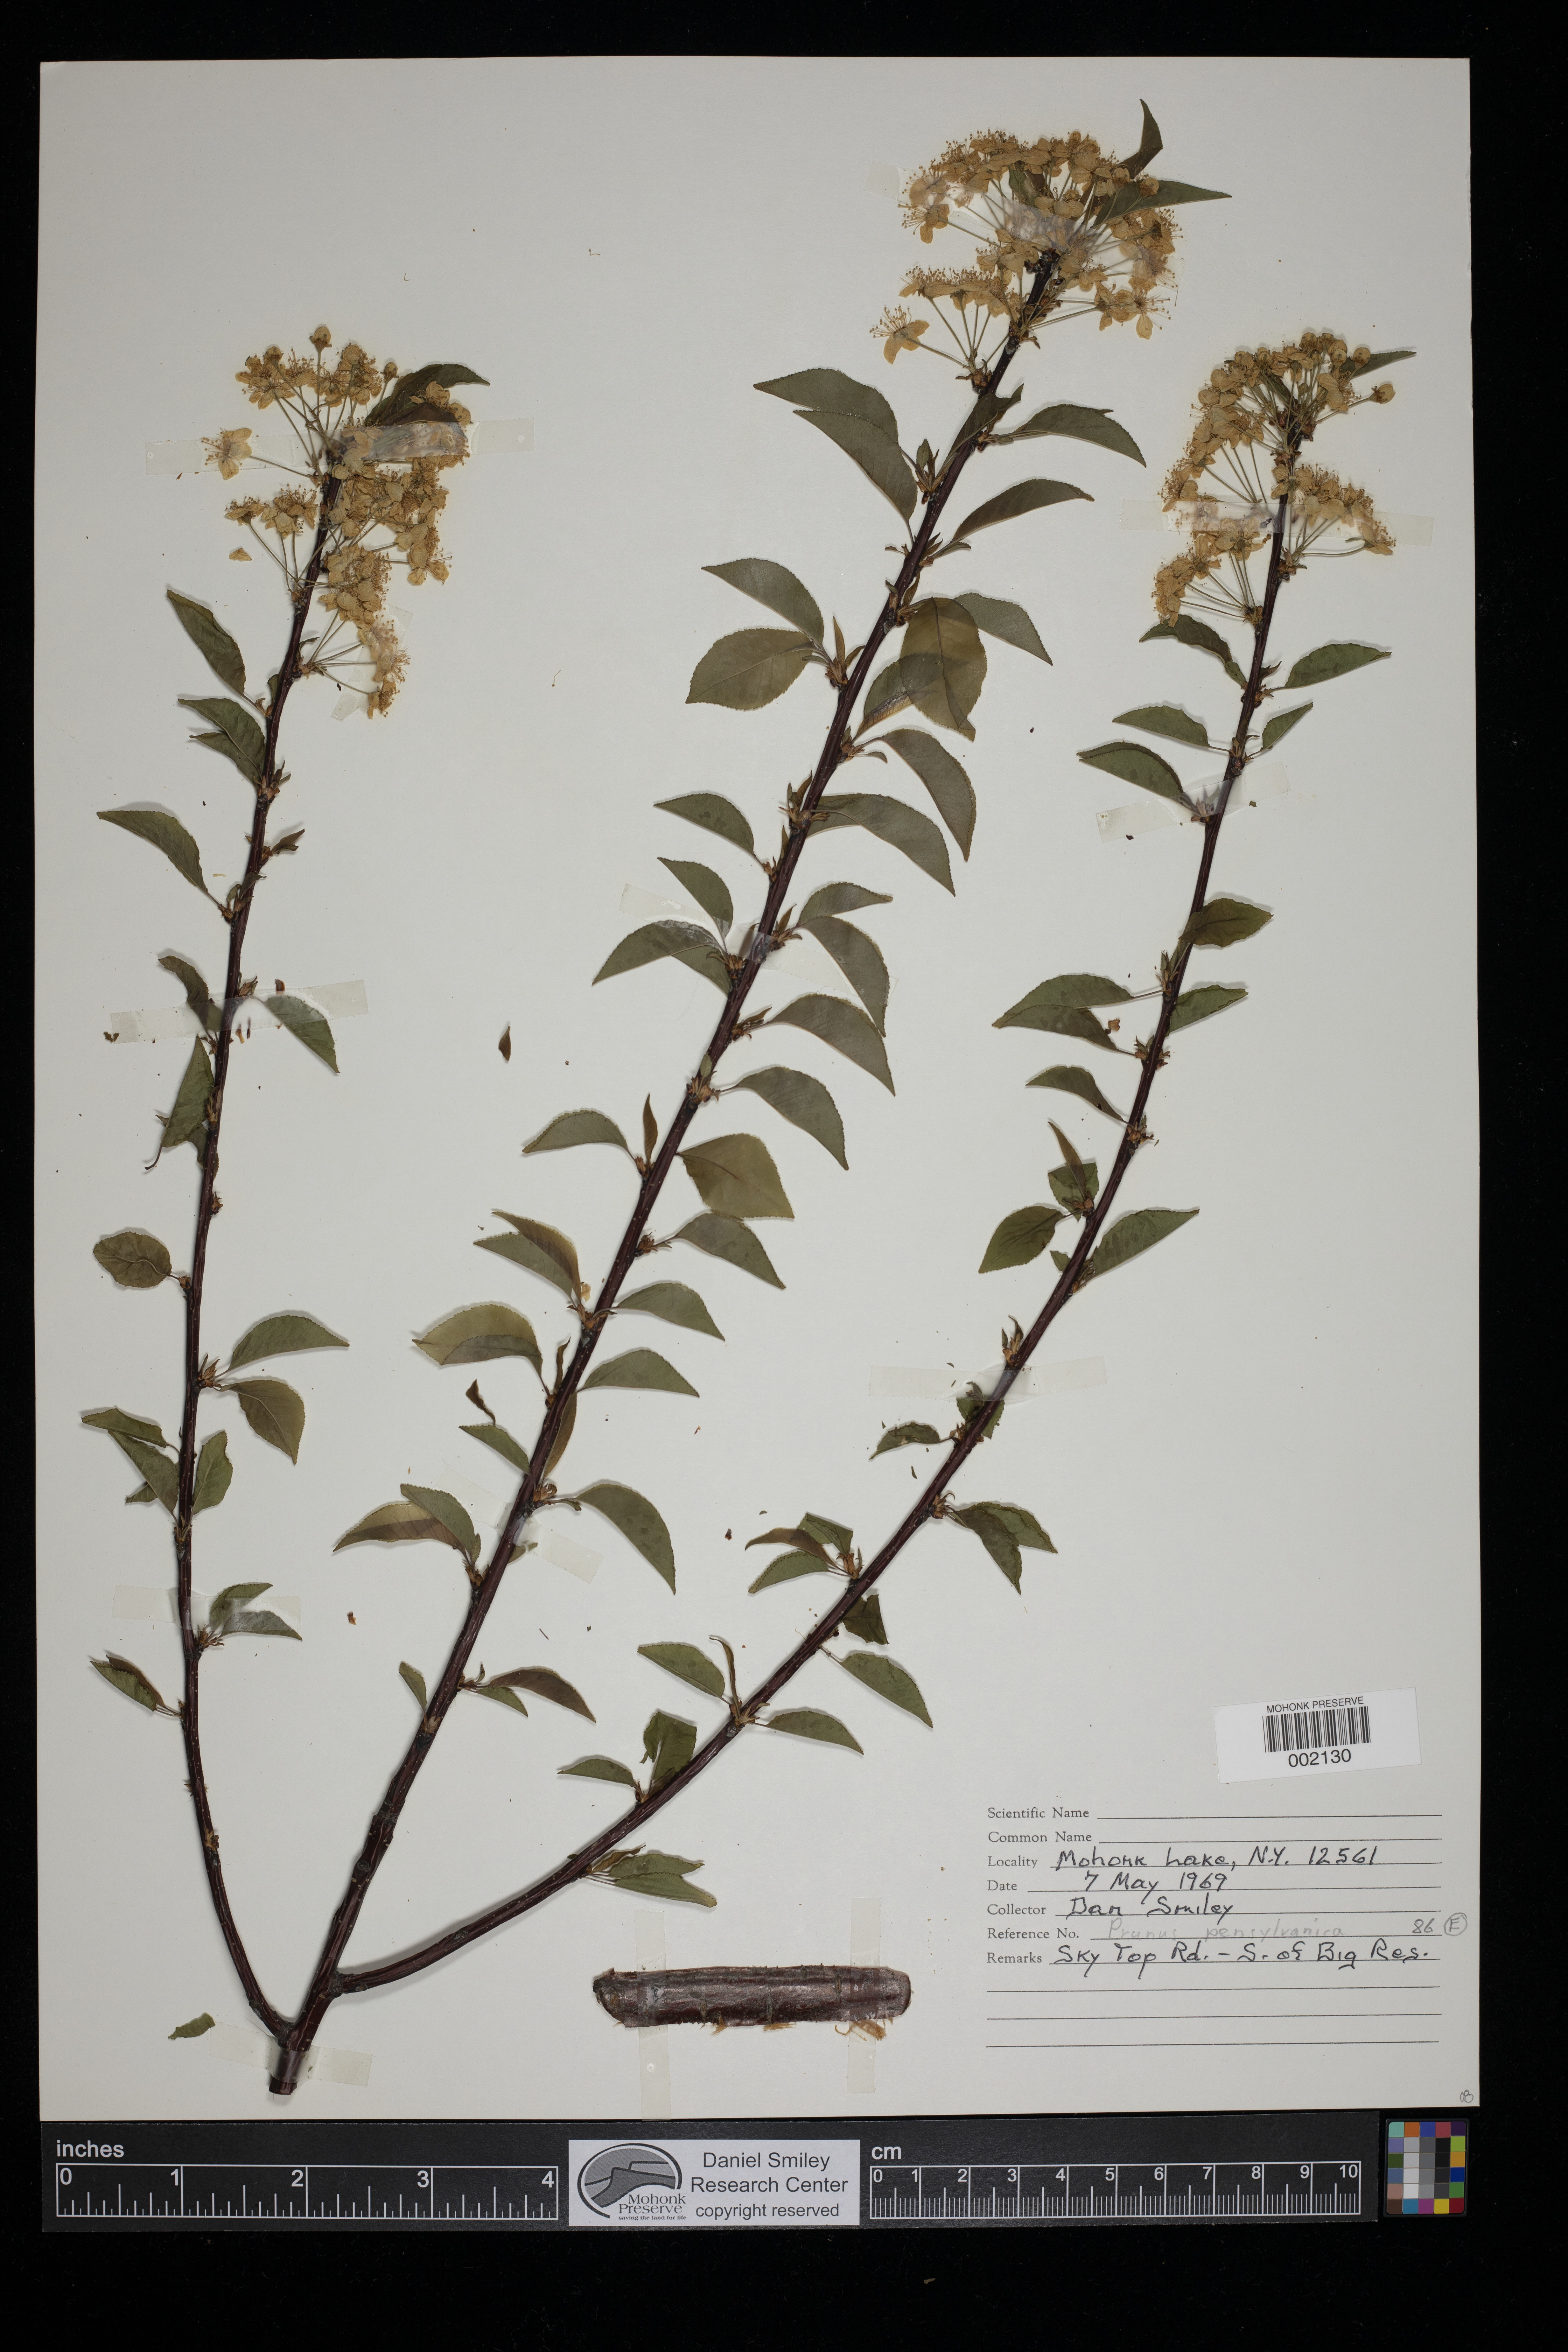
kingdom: Plantae
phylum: Tracheophyta
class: Magnoliopsida
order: Rosales
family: Rosaceae
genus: Prunus
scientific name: Prunus pensylvanica
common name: Pin cherry
